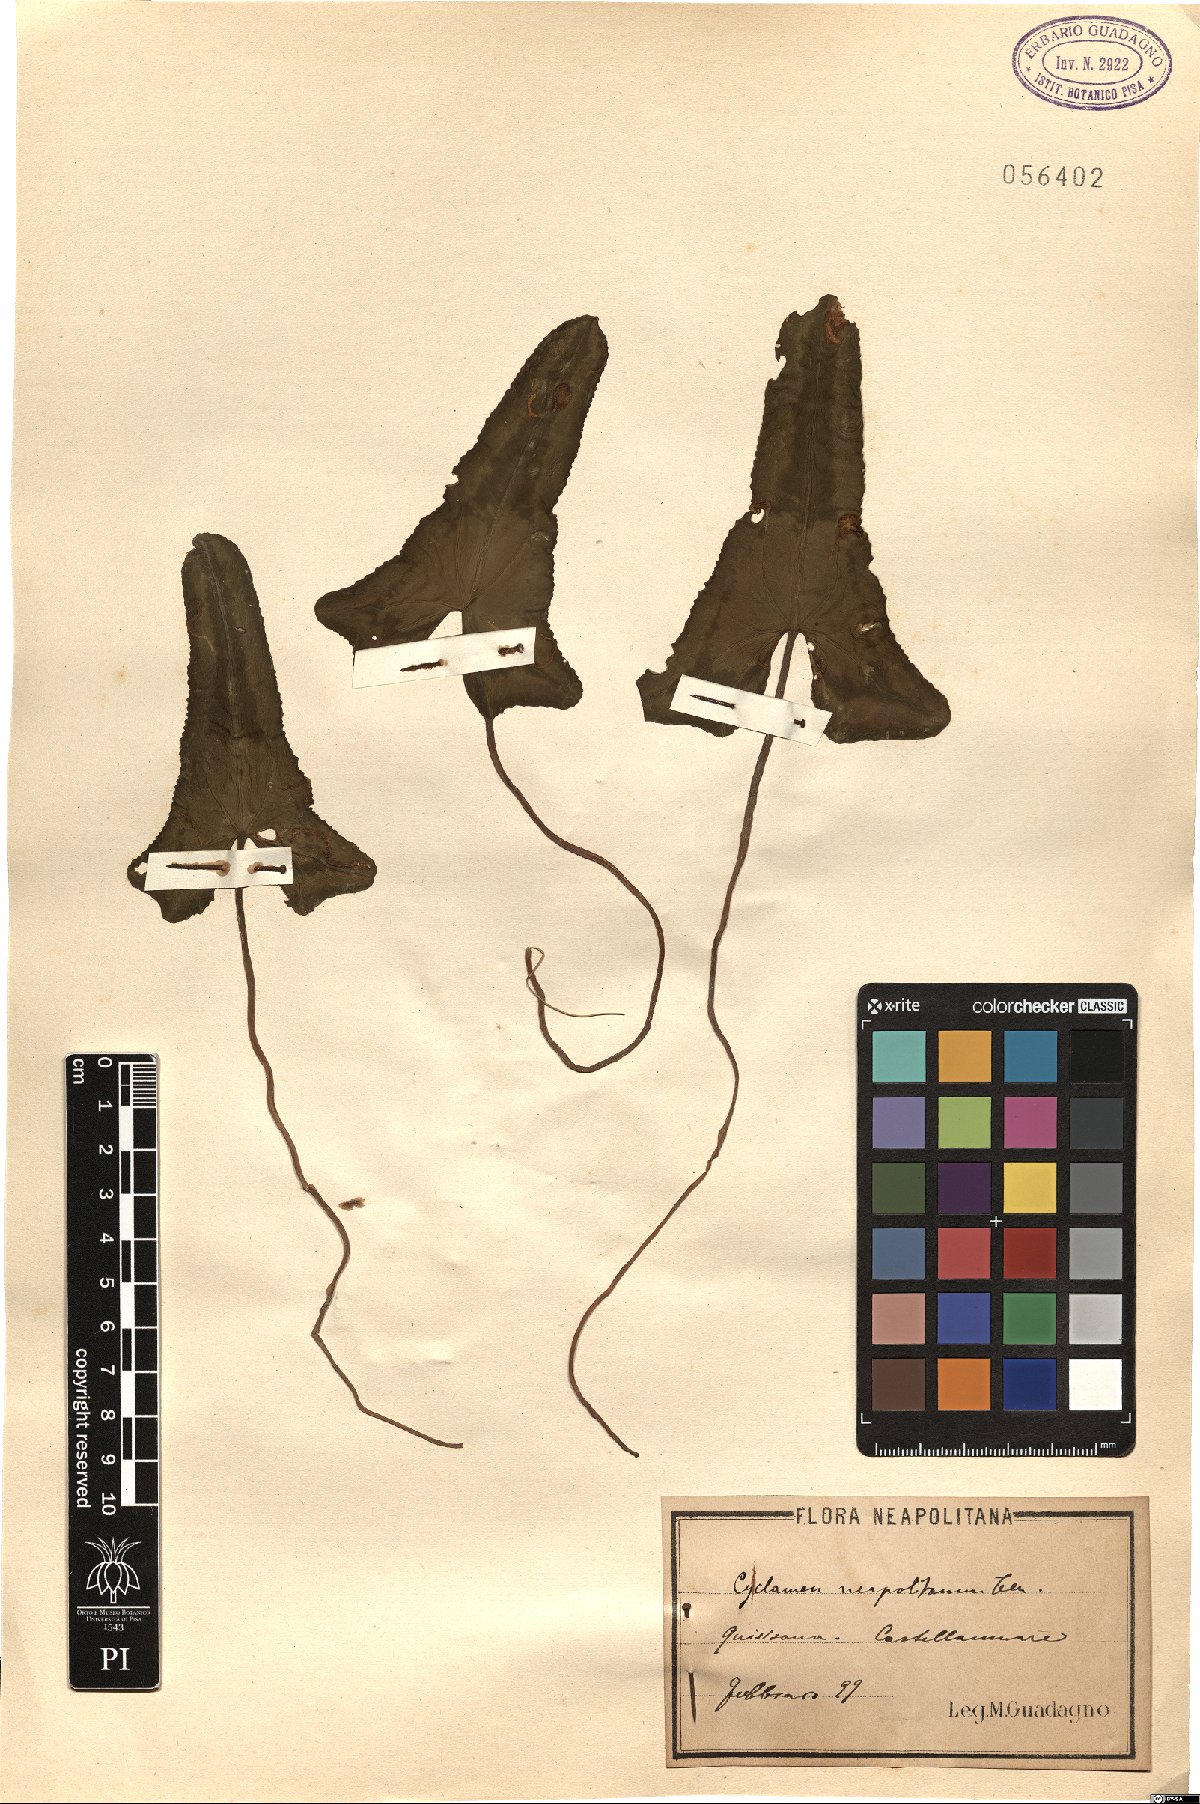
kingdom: Plantae
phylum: Tracheophyta
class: Magnoliopsida
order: Ericales
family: Primulaceae
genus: Cyclamen
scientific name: Cyclamen hederifolium
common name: Sowbread
